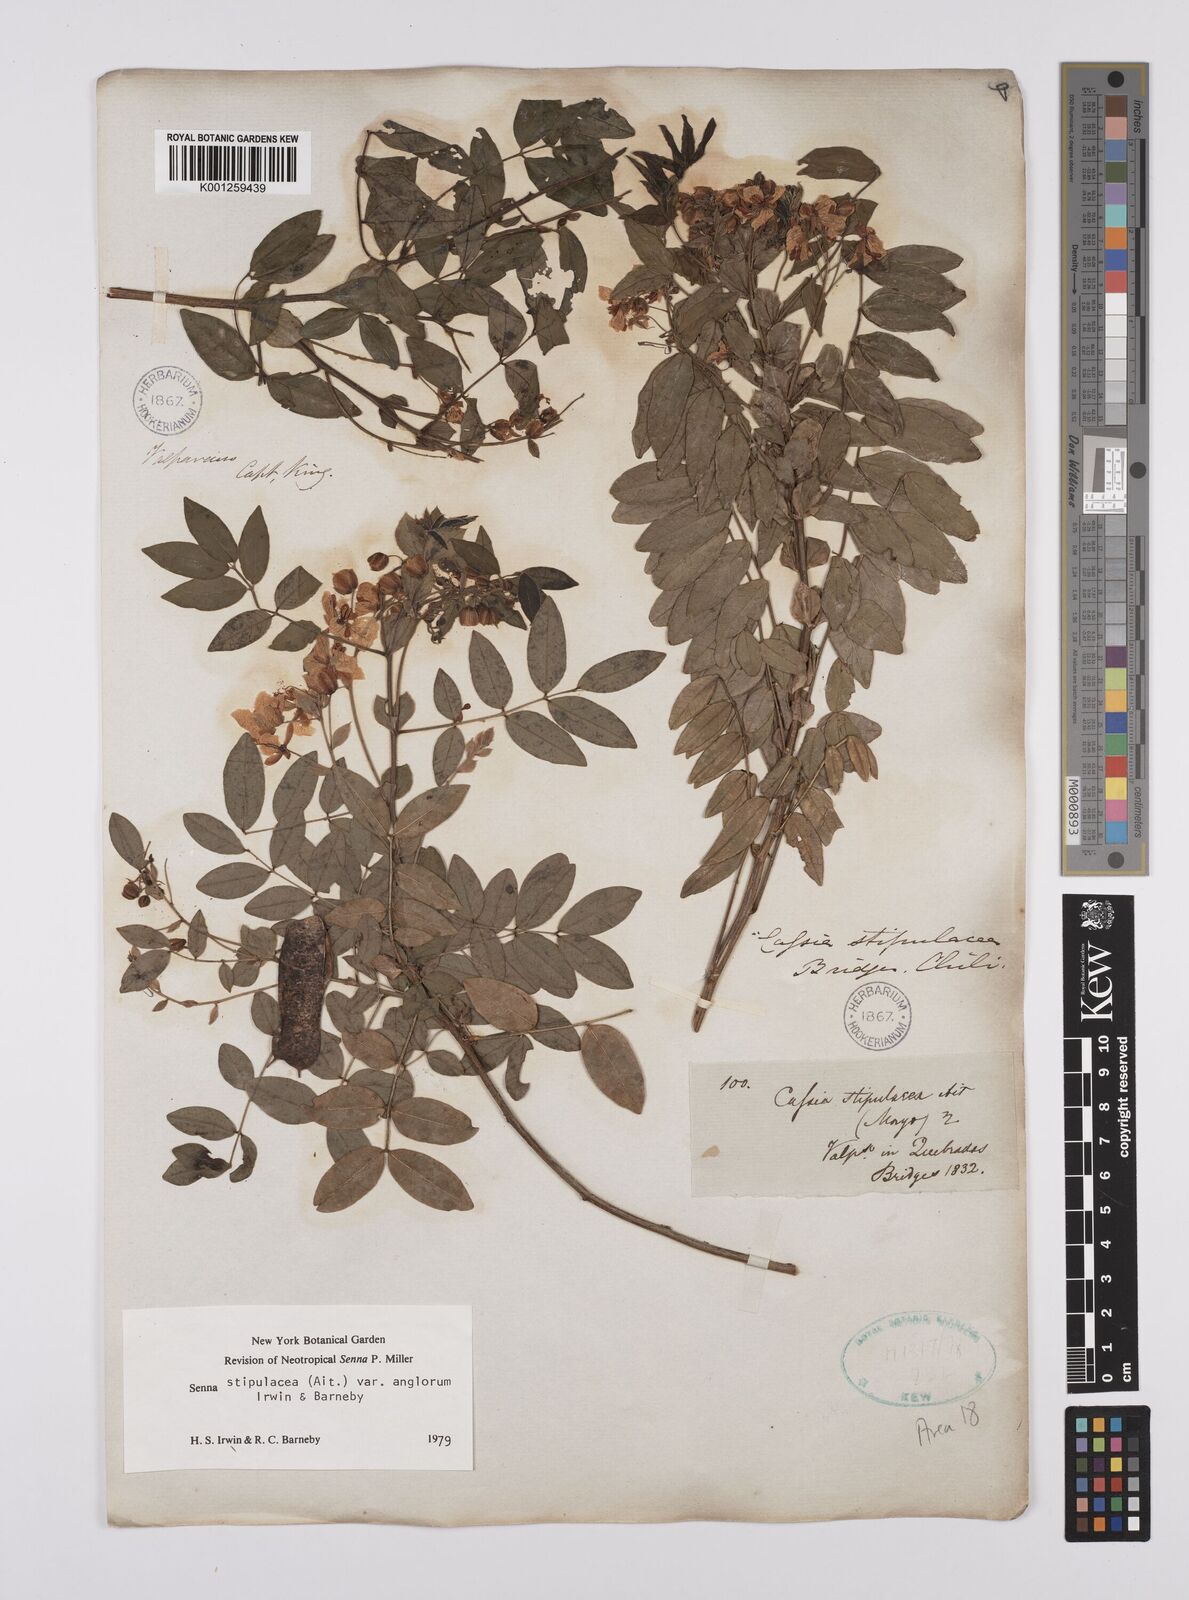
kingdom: Plantae
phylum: Tracheophyta
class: Magnoliopsida
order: Fabales
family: Fabaceae
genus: Senna
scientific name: Senna stipulacea
